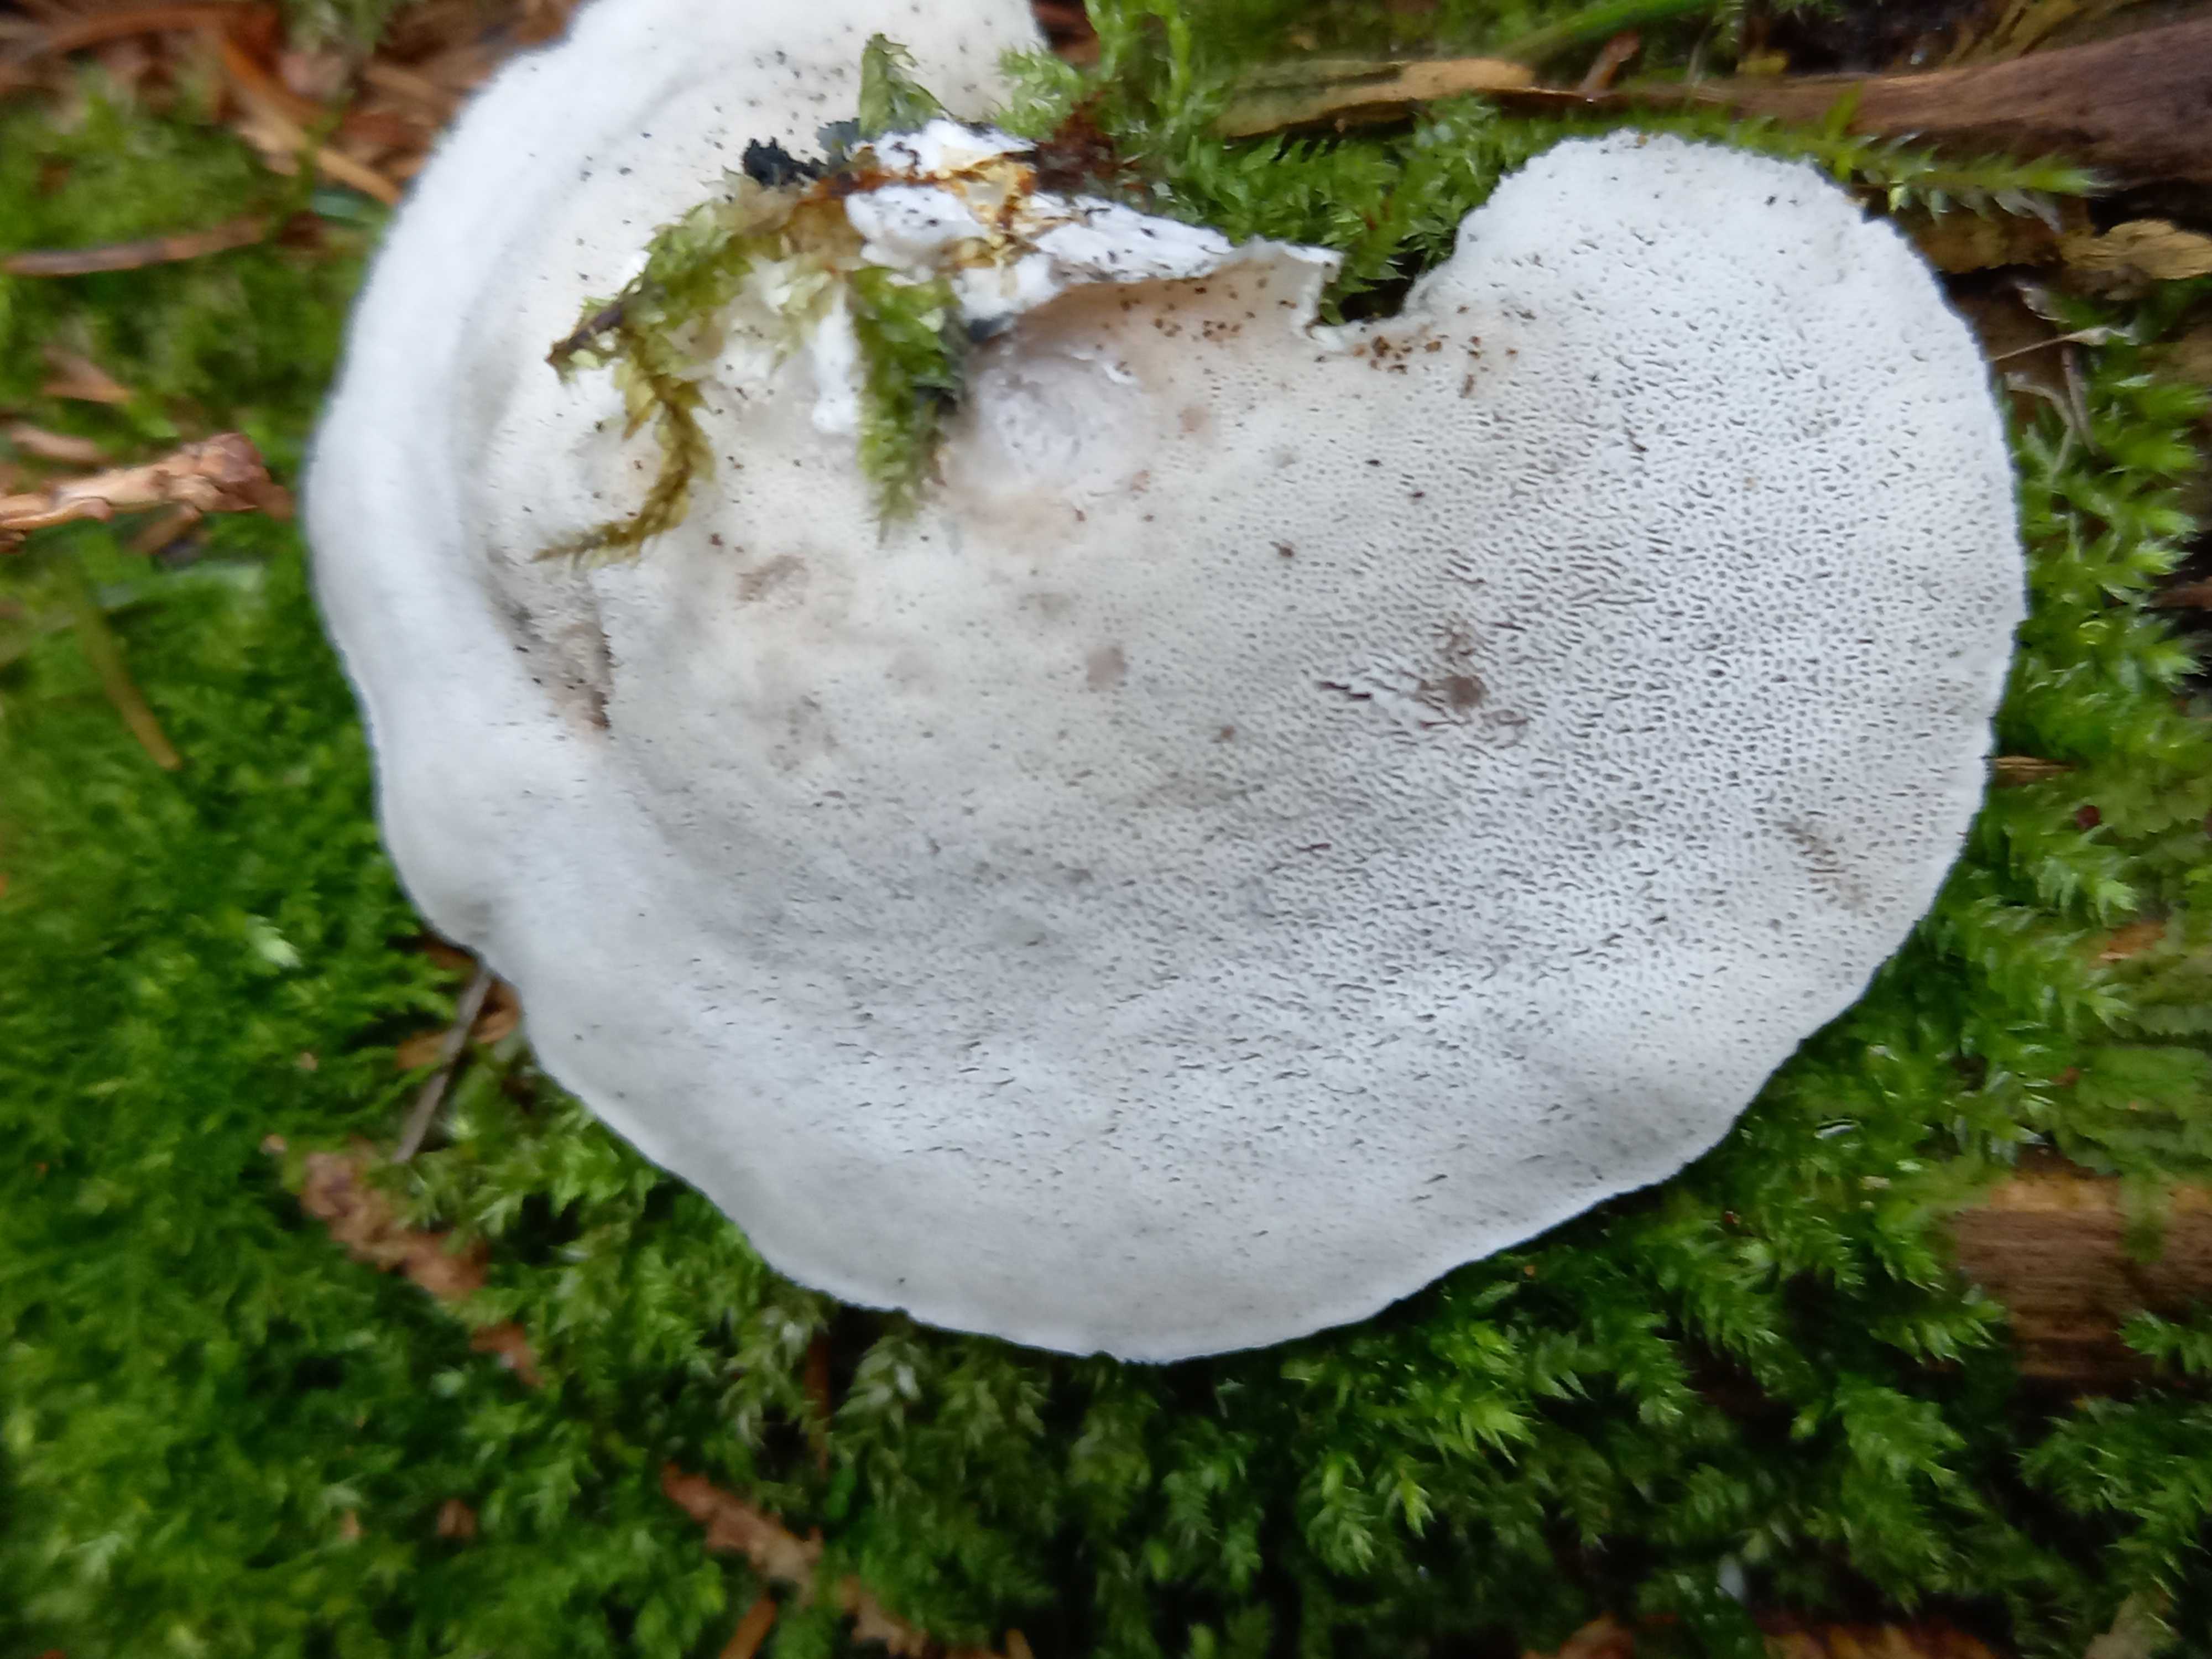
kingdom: Fungi
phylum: Basidiomycota
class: Agaricomycetes
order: Polyporales
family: Phanerochaetaceae
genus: Bjerkandera
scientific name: Bjerkandera adusta
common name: sveden sodporesvamp
